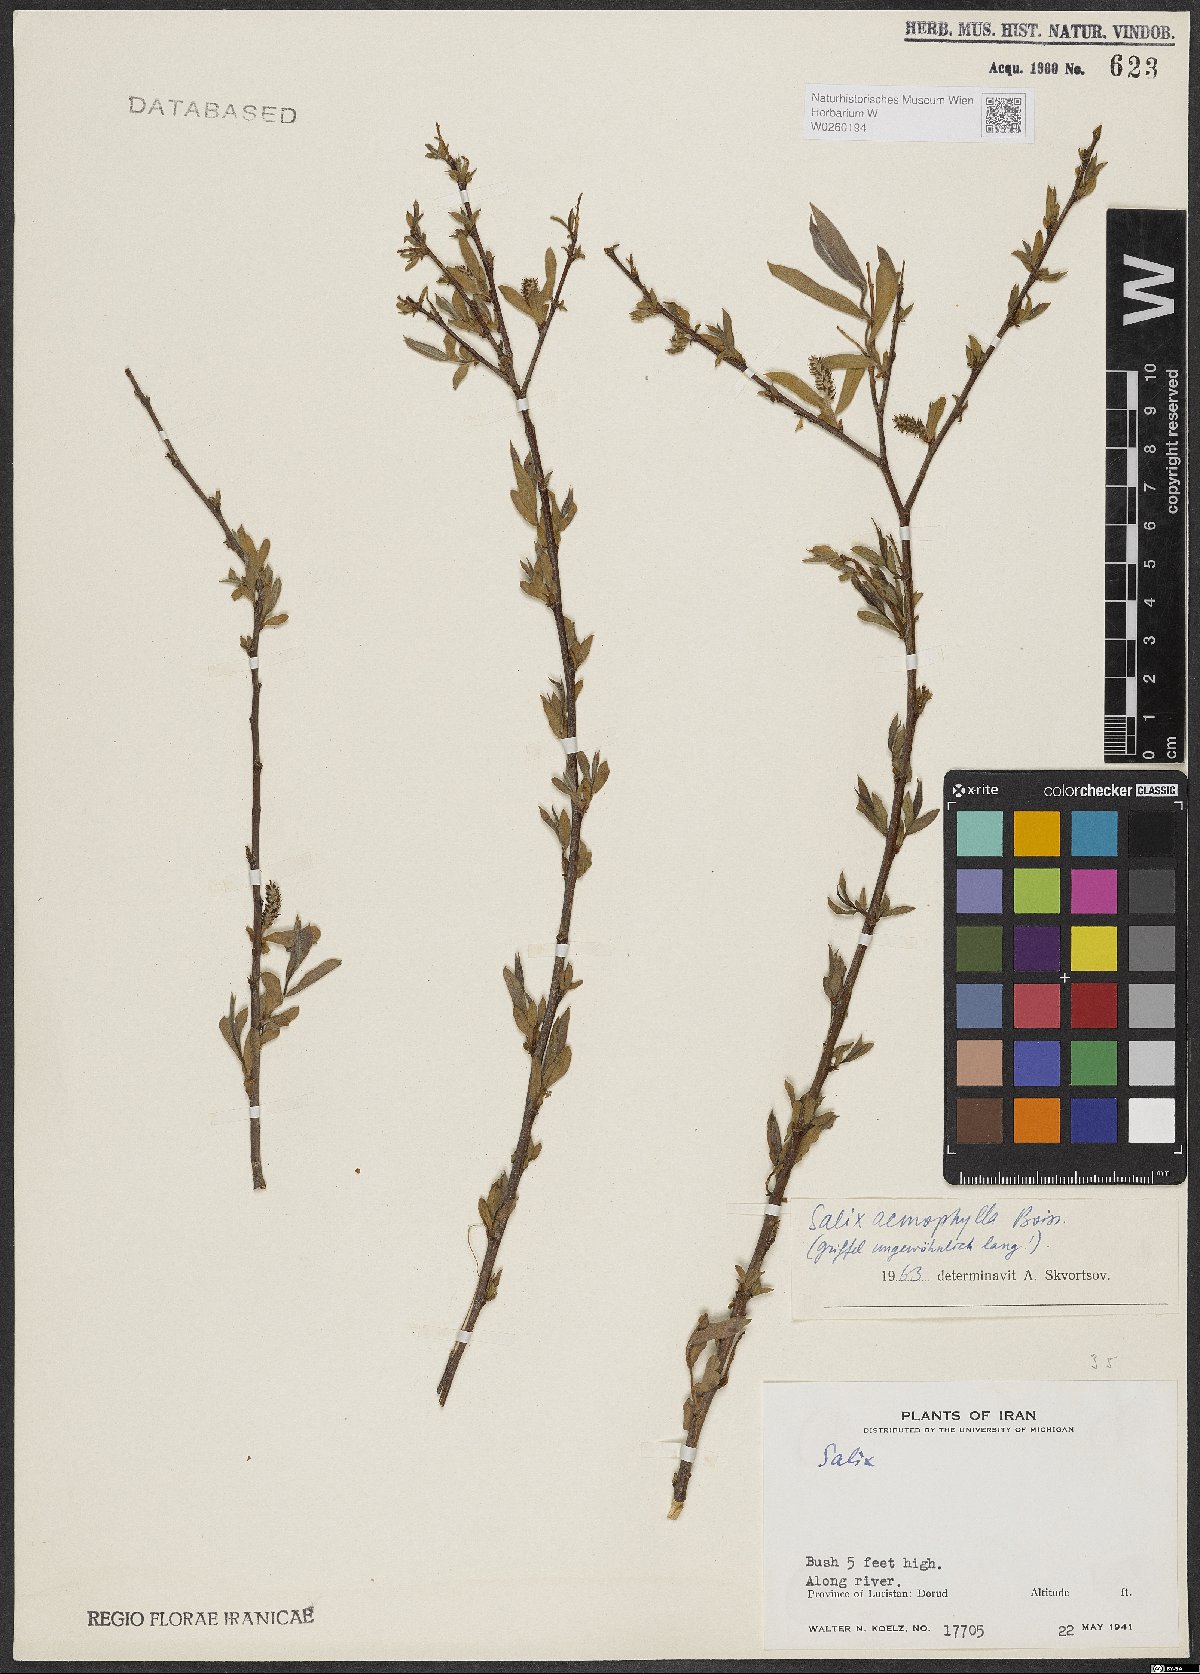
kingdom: Plantae
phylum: Tracheophyta
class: Magnoliopsida
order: Malpighiales
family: Salicaceae
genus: Salix
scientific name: Salix acmophylla
